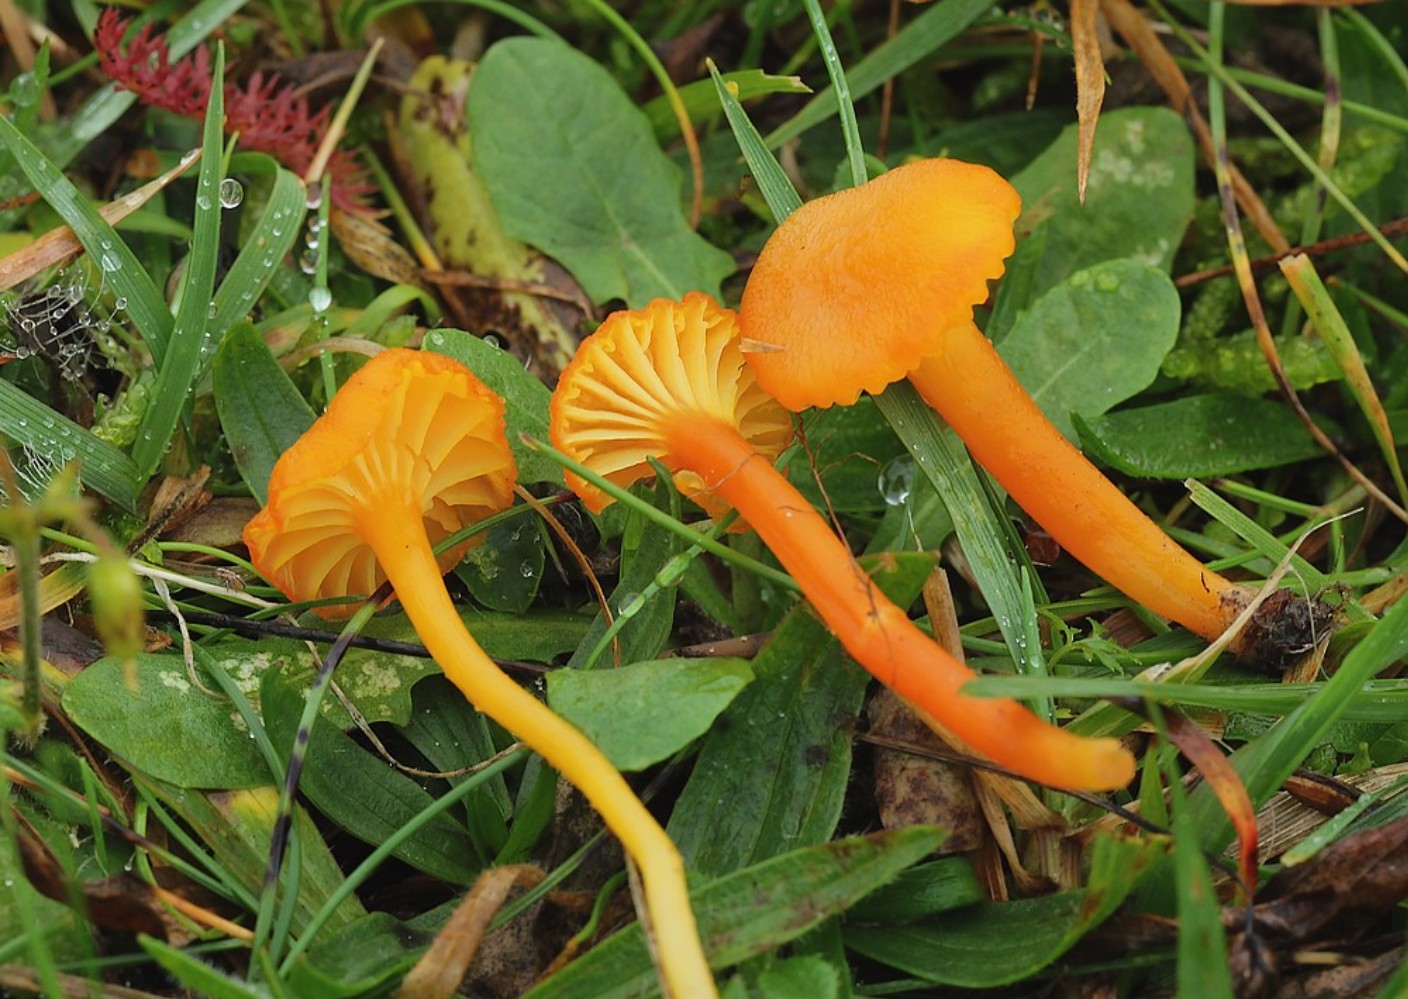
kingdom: Fungi
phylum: Basidiomycota
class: Agaricomycetes
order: Agaricales
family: Hygrophoraceae
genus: Hygrocybe
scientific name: Hygrocybe cantharellus
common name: kantarel-vokshat
